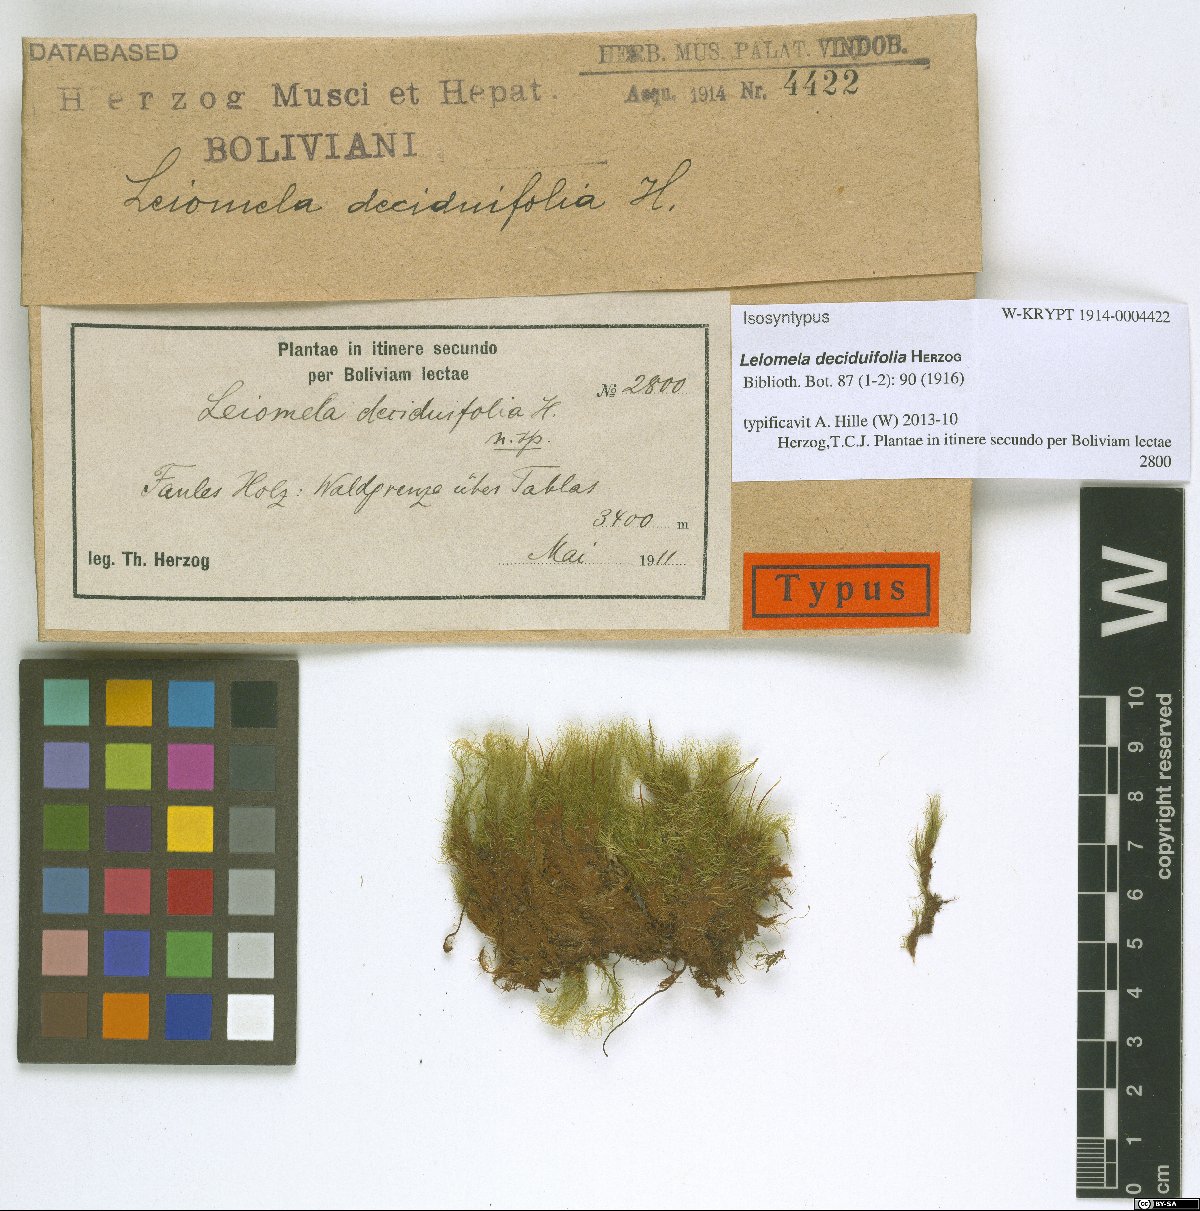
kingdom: Plantae
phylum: Bryophyta
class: Bryopsida
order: Bartramiales
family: Bartramiaceae
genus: Leiomela
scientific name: Leiomela deciduifolia
